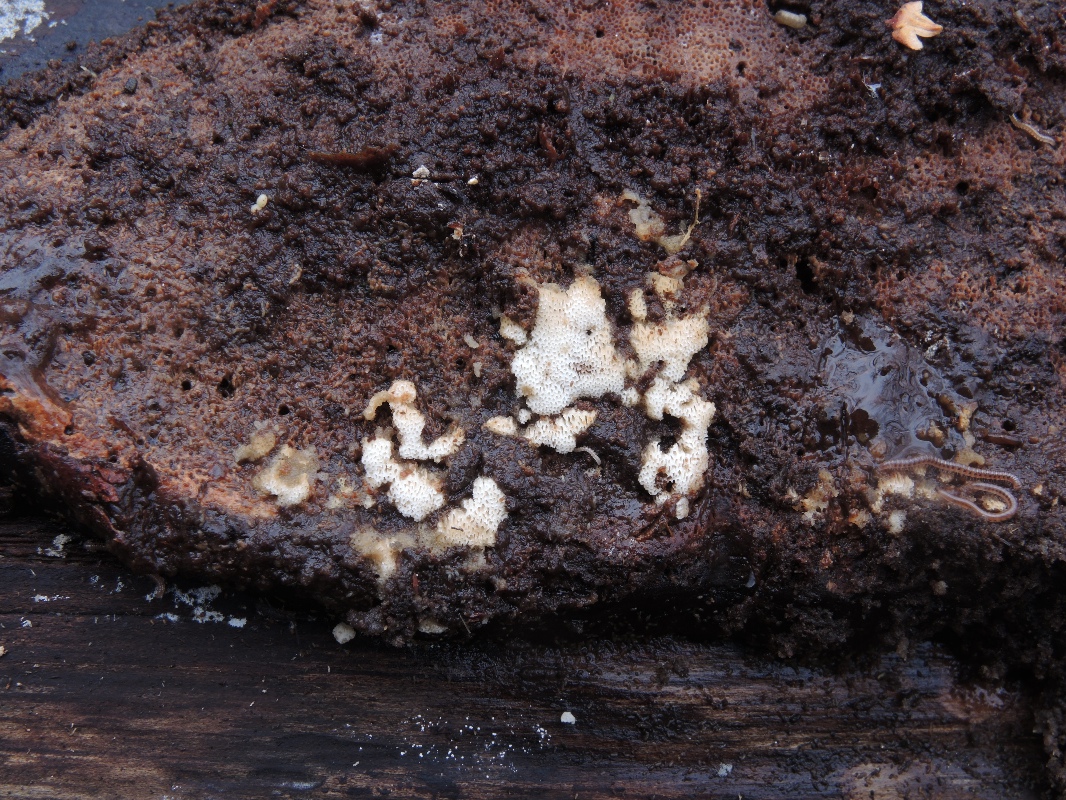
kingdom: Fungi
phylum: Basidiomycota
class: Agaricomycetes
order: Polyporales
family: Meripilaceae
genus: Rigidoporus
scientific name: Rigidoporus sanguinolentus
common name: blod-skorpeporesvamp
